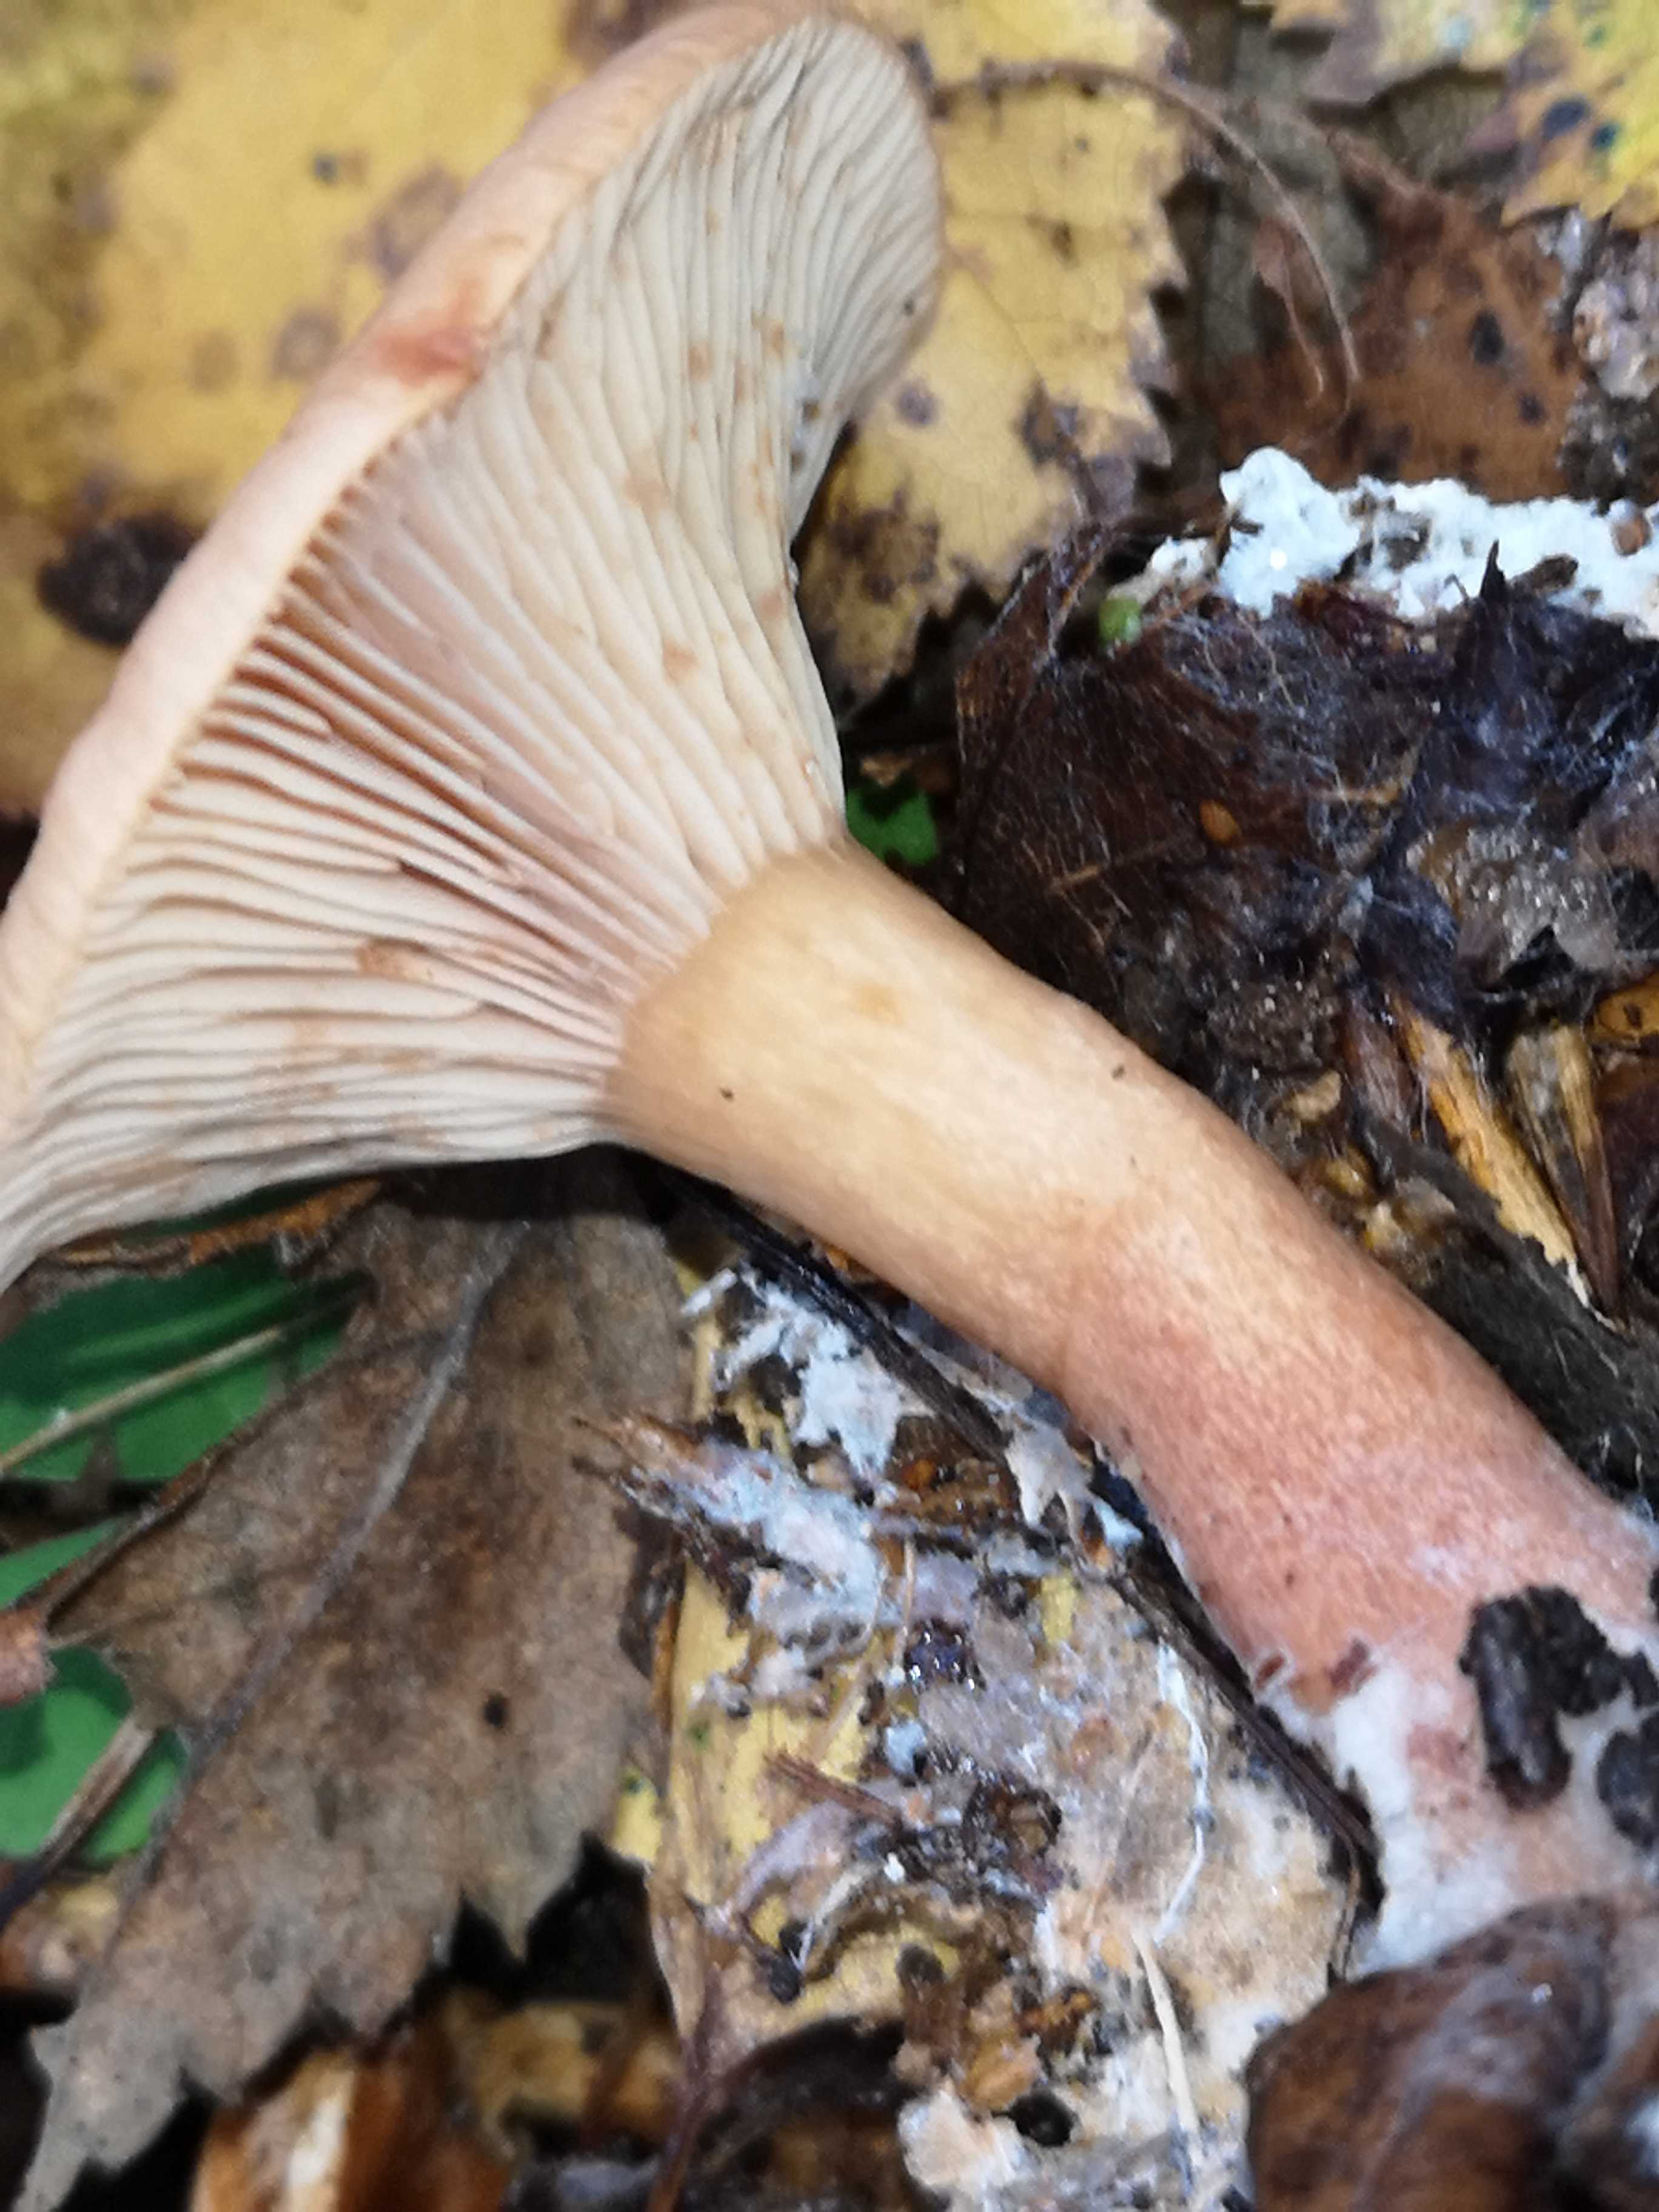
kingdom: Fungi
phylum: Basidiomycota
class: Agaricomycetes
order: Russulales
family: Russulaceae
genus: Lactarius
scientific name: Lactarius tabidus
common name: rynket mælkehat
